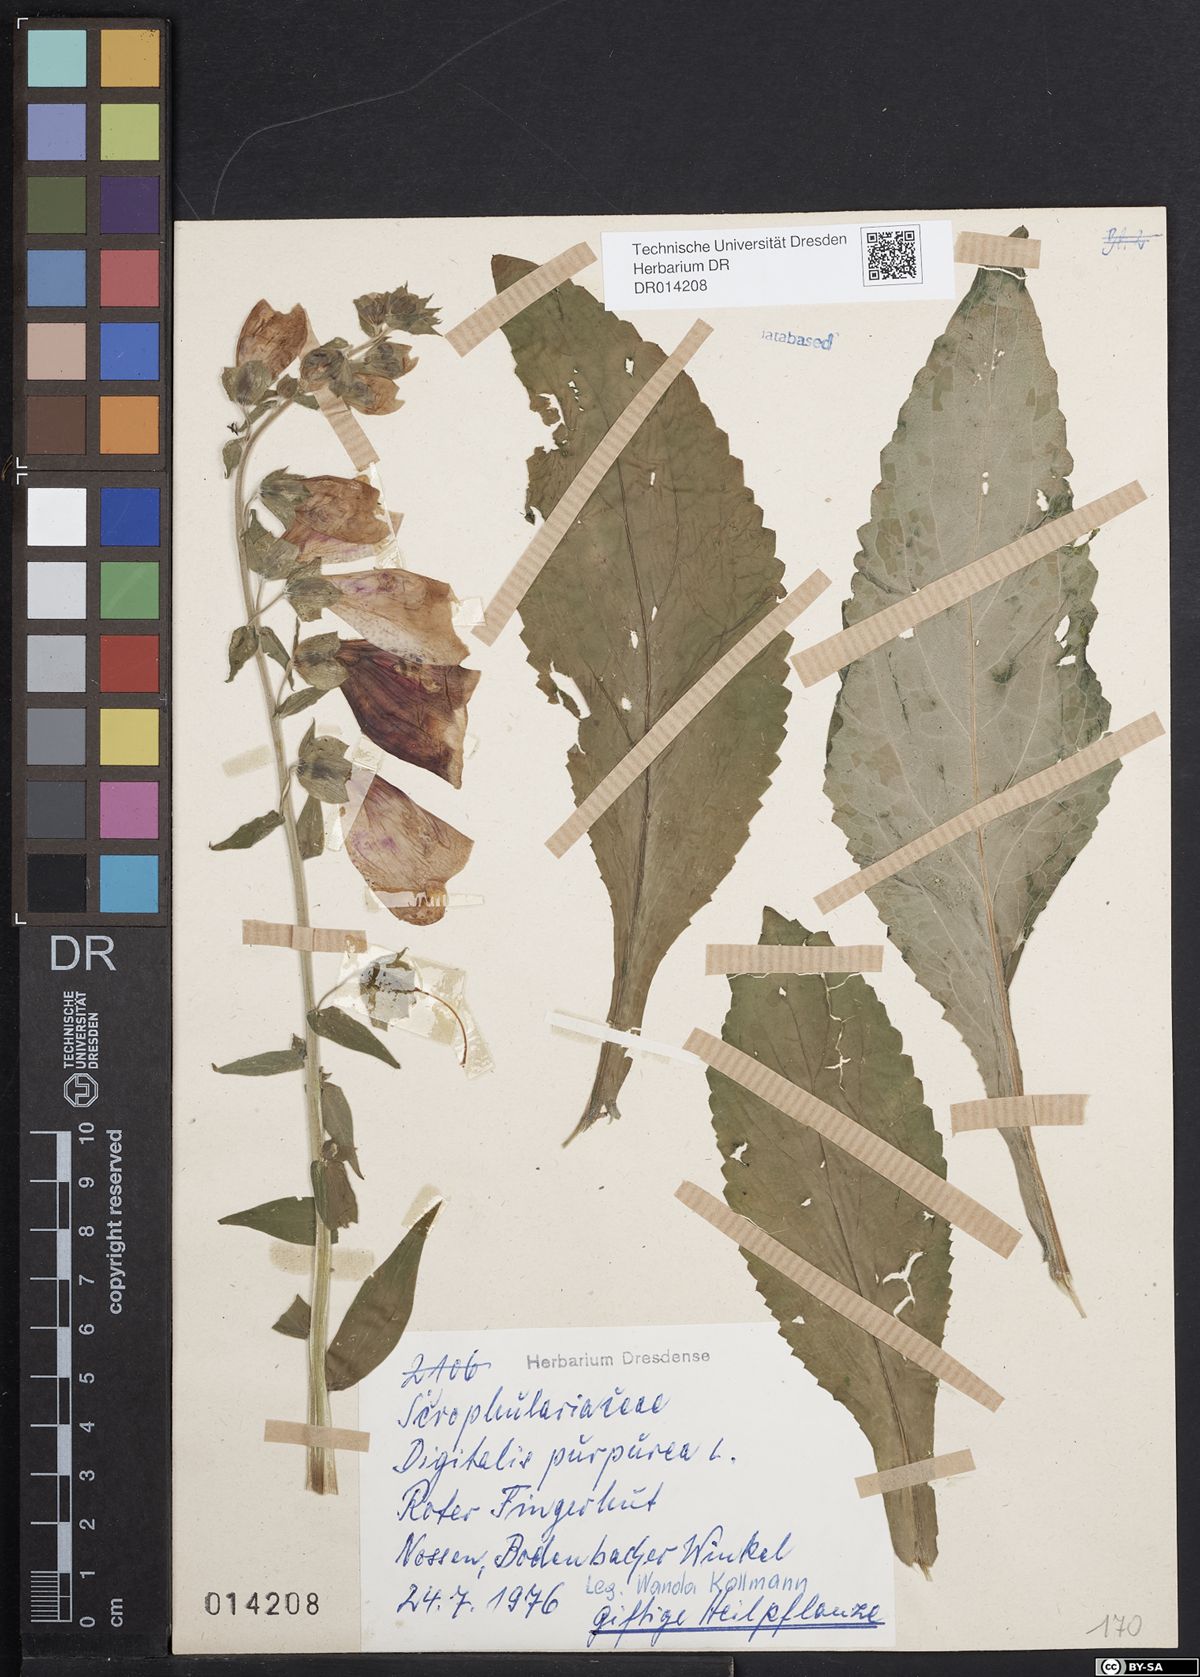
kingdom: Plantae
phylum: Tracheophyta
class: Magnoliopsida
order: Lamiales
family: Plantaginaceae
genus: Digitalis
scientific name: Digitalis purpurea
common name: Foxglove
